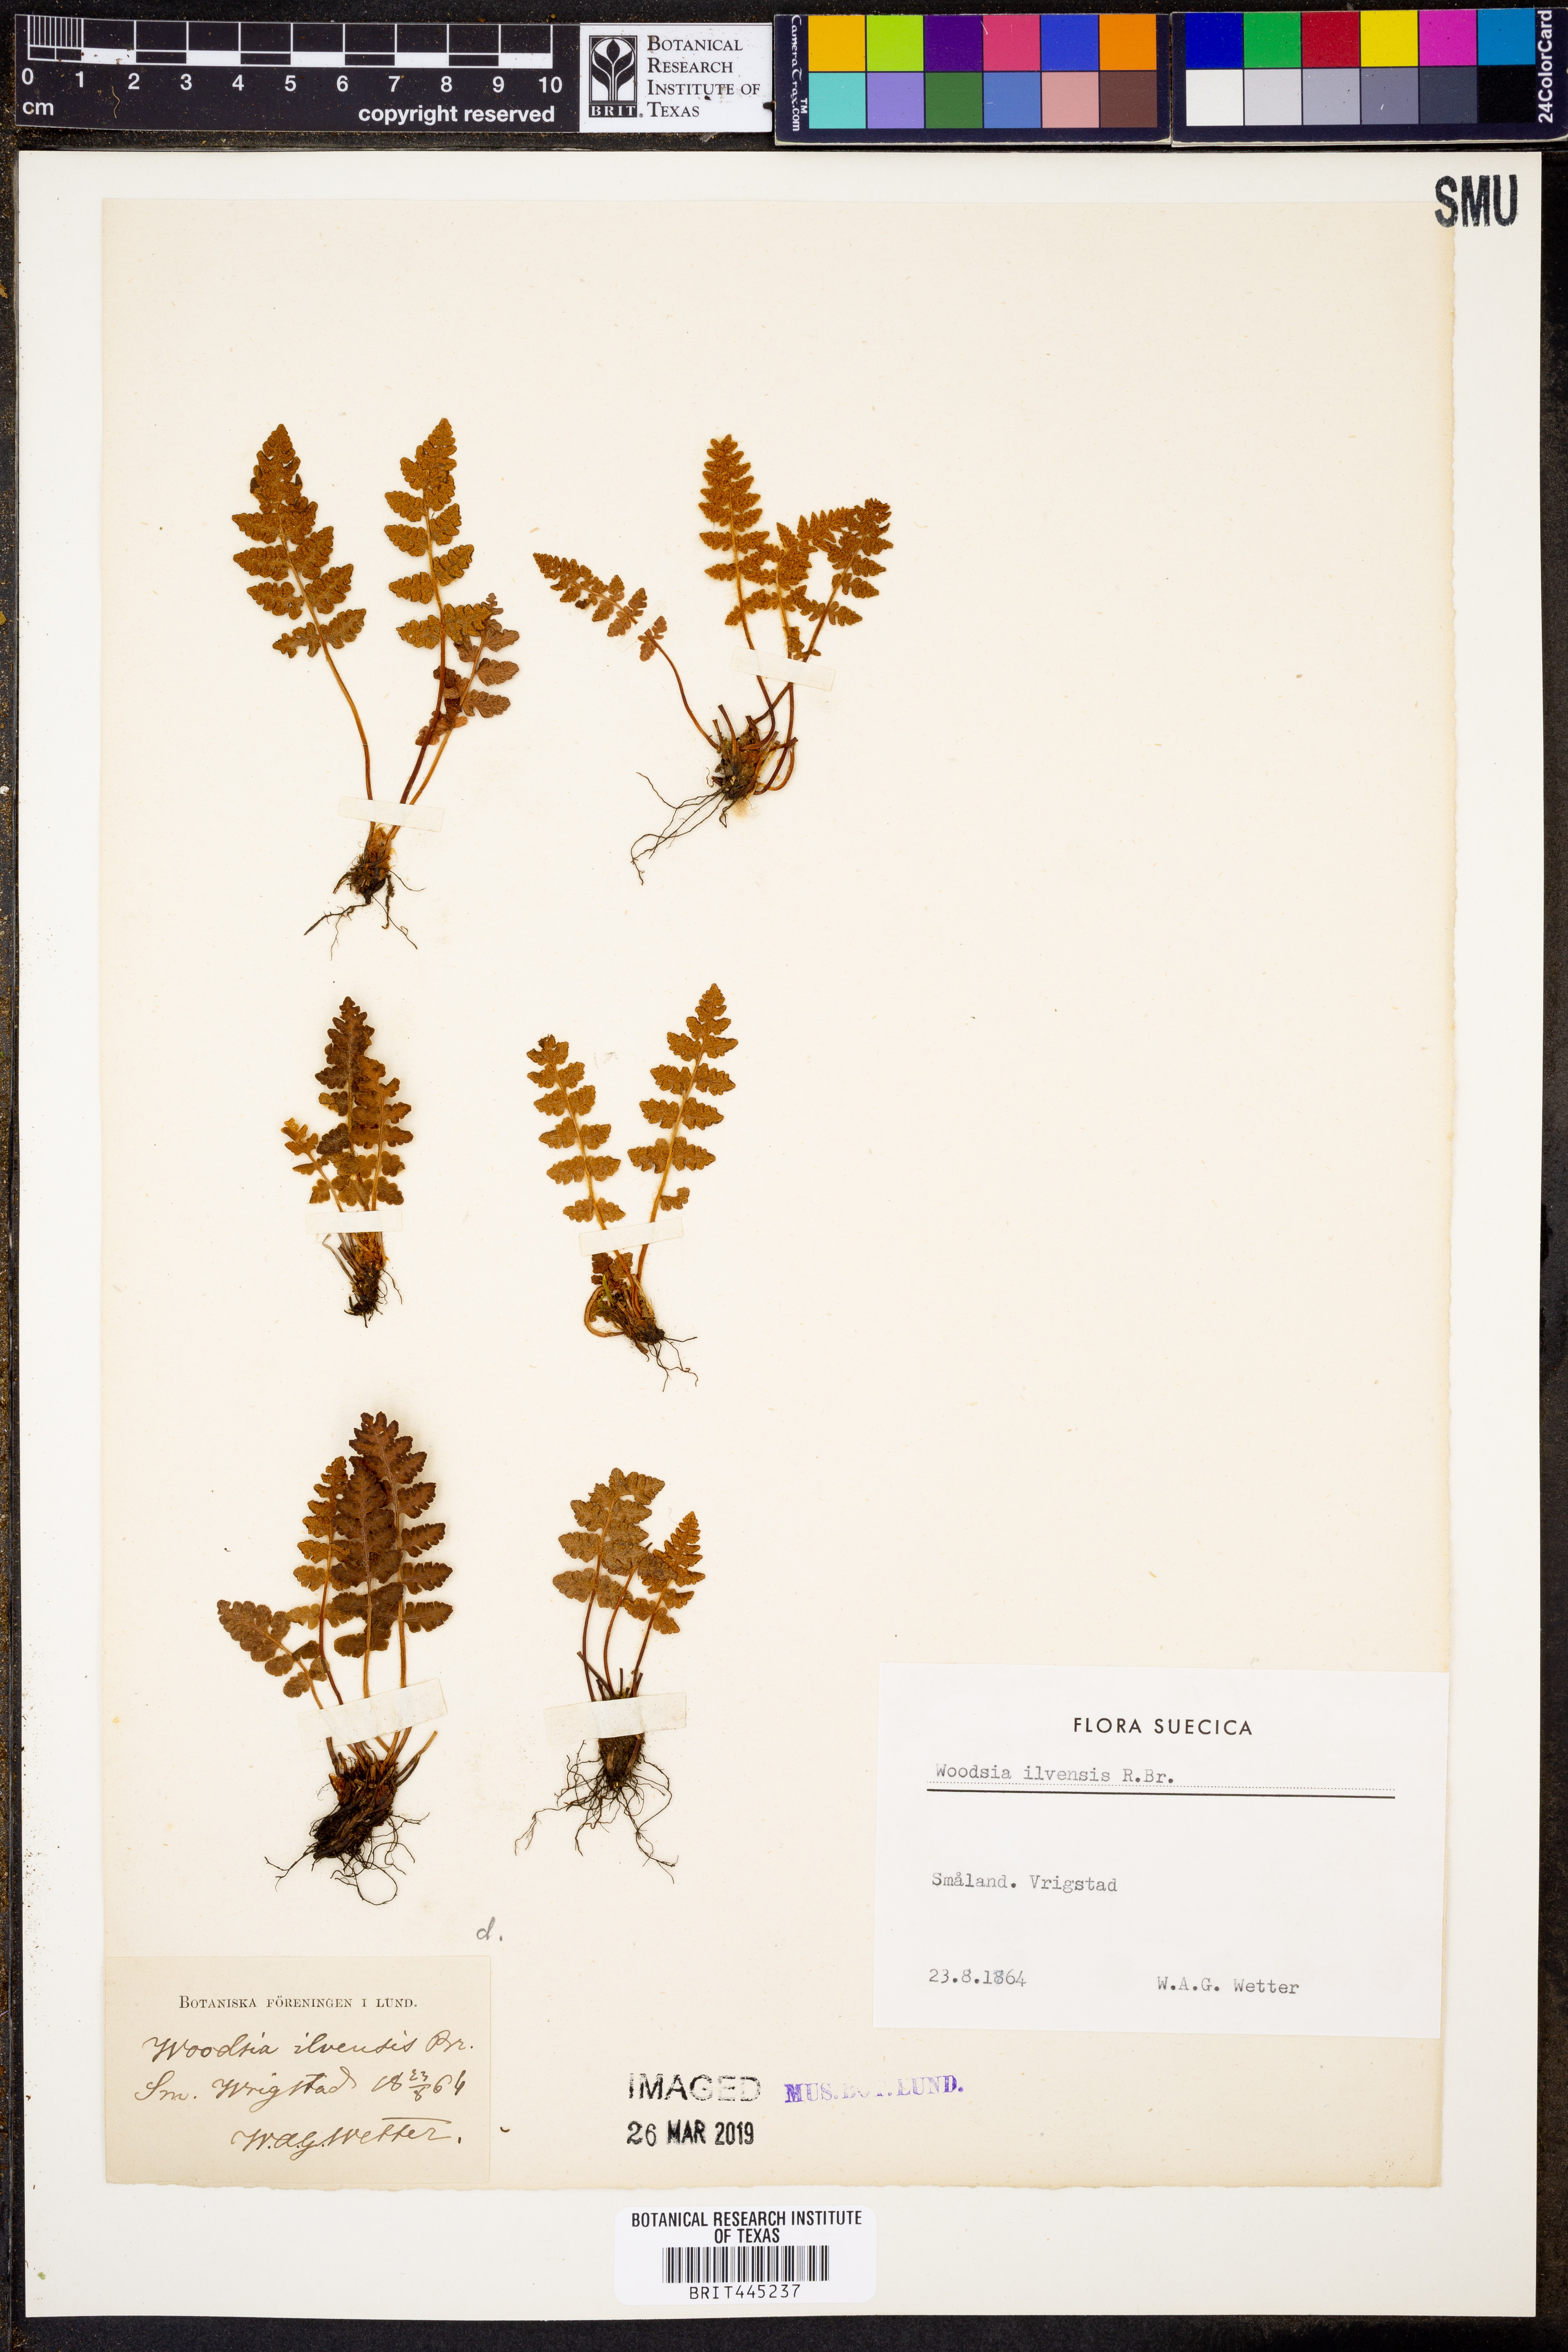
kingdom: Plantae
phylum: Tracheophyta
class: Polypodiopsida
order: Polypodiales
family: Woodsiaceae
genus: Woodsia
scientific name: Woodsia ilvensis
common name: Fragrant woodsia
